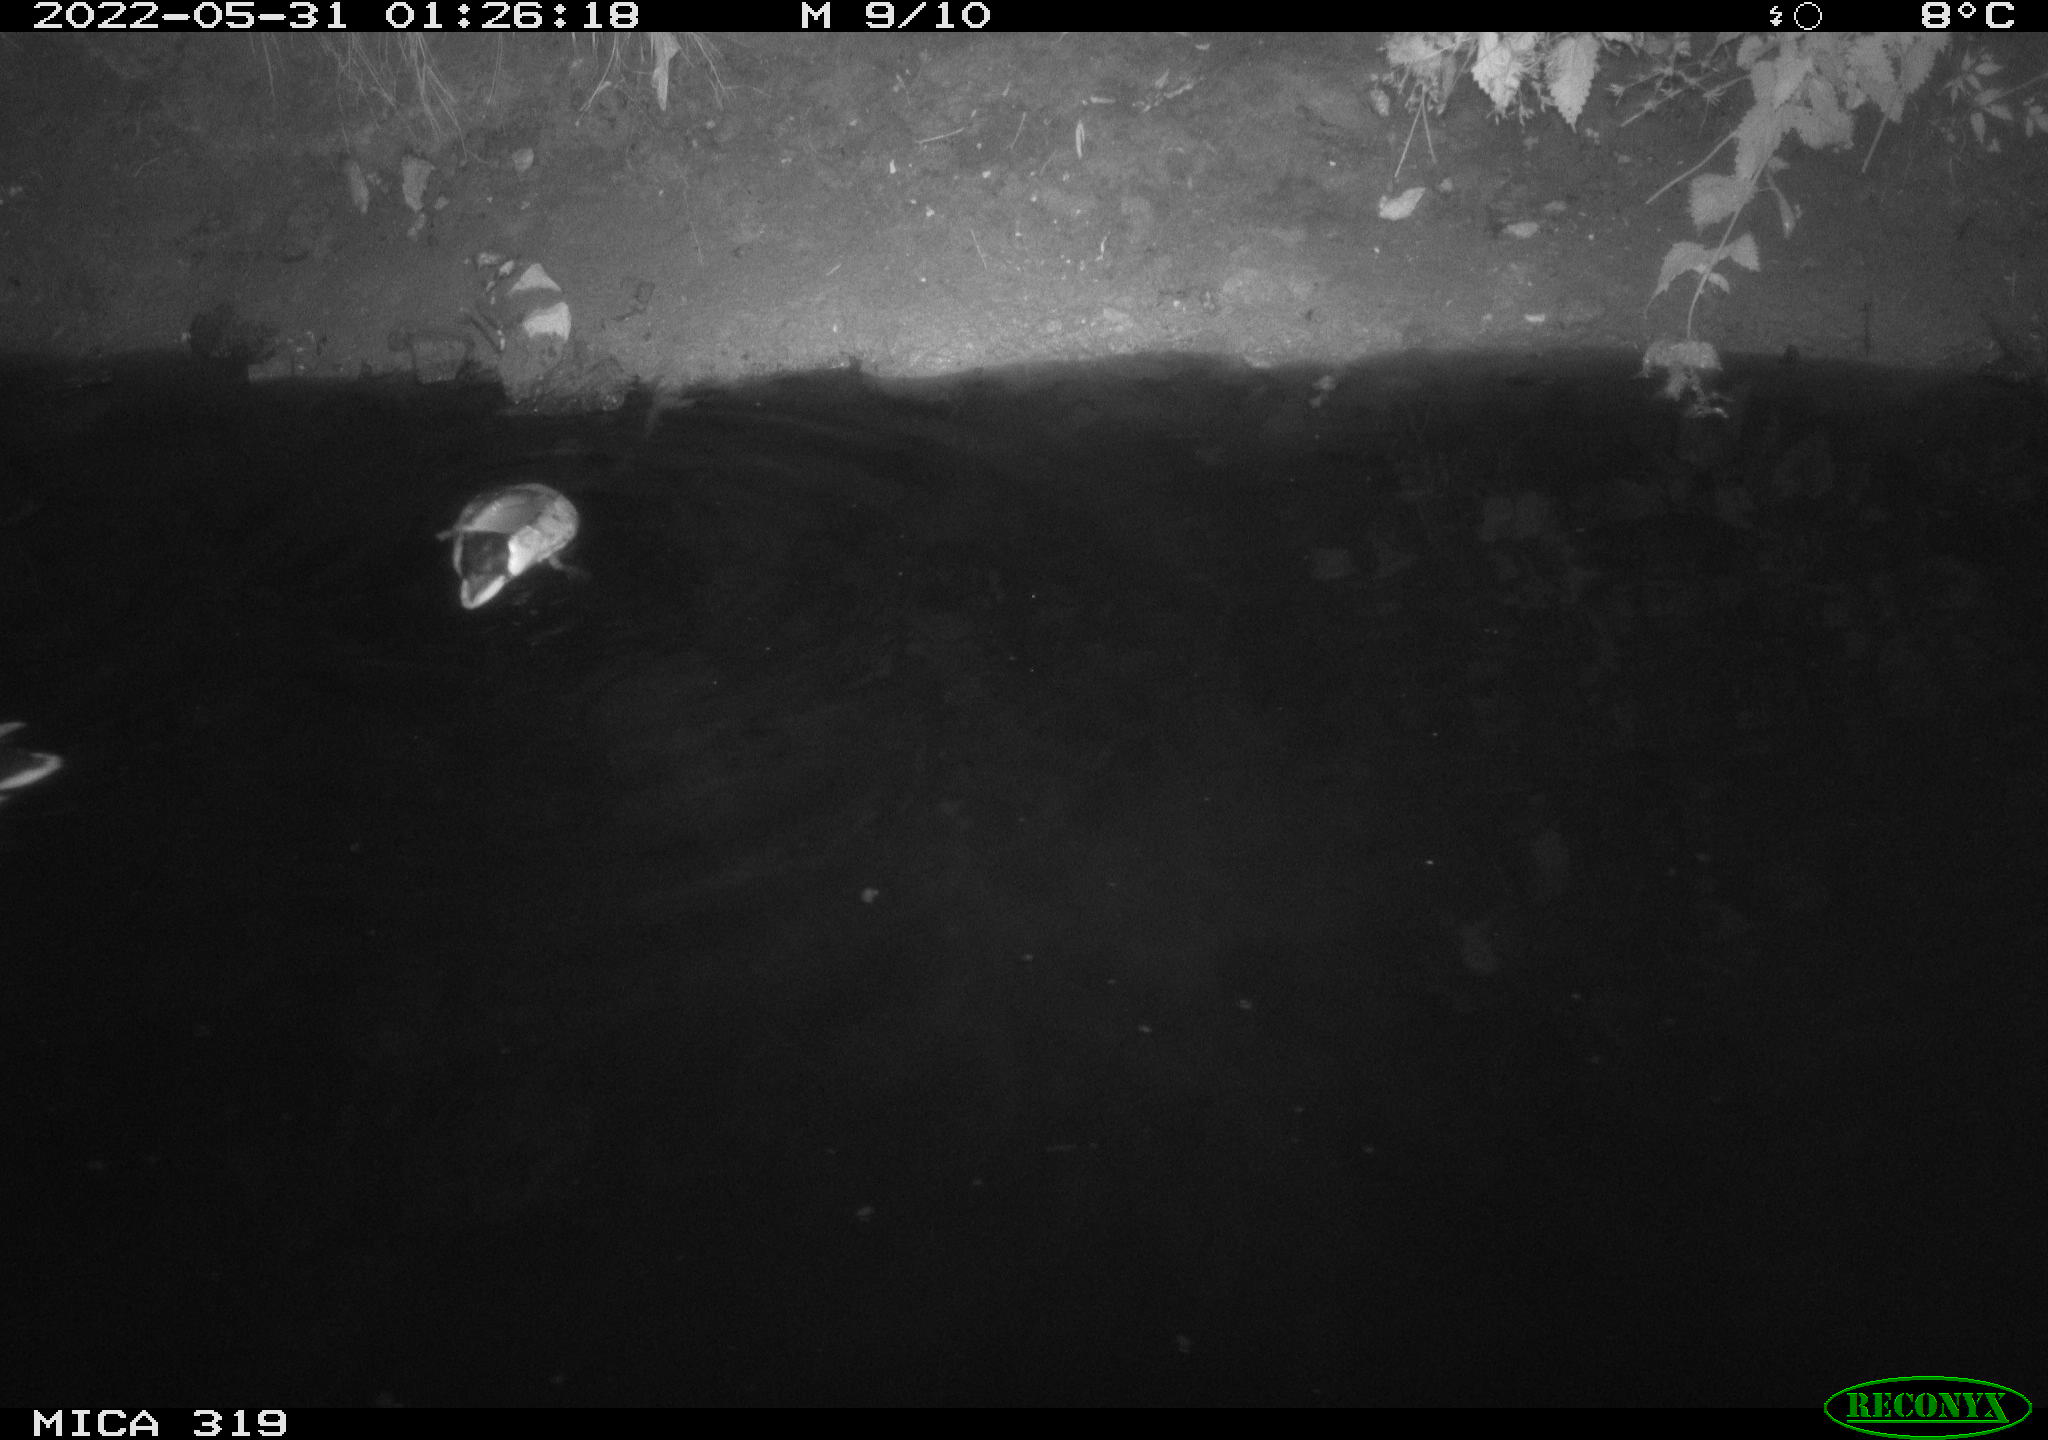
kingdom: Animalia
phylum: Chordata
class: Aves
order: Anseriformes
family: Anatidae
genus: Anas
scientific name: Anas
